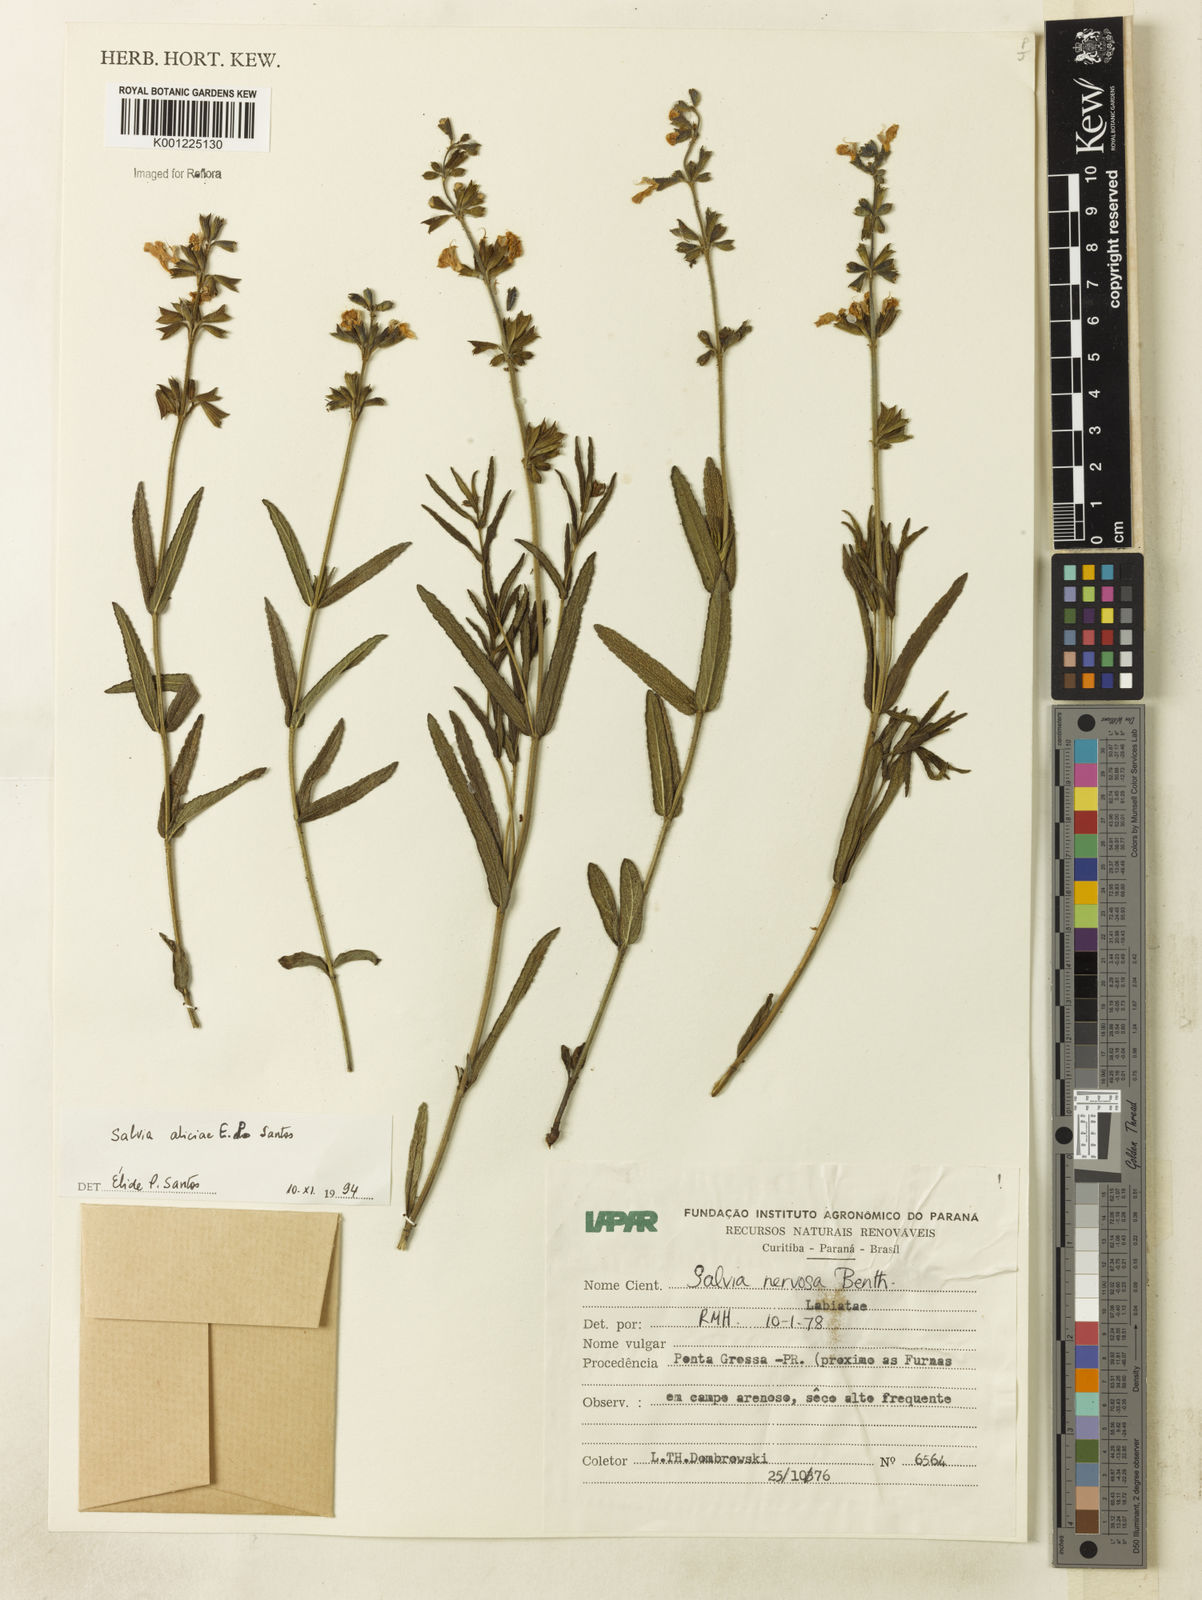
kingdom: Plantae
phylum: Tracheophyta
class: Magnoliopsida
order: Lamiales
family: Lamiaceae
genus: Salvia
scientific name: Salvia aliciae
